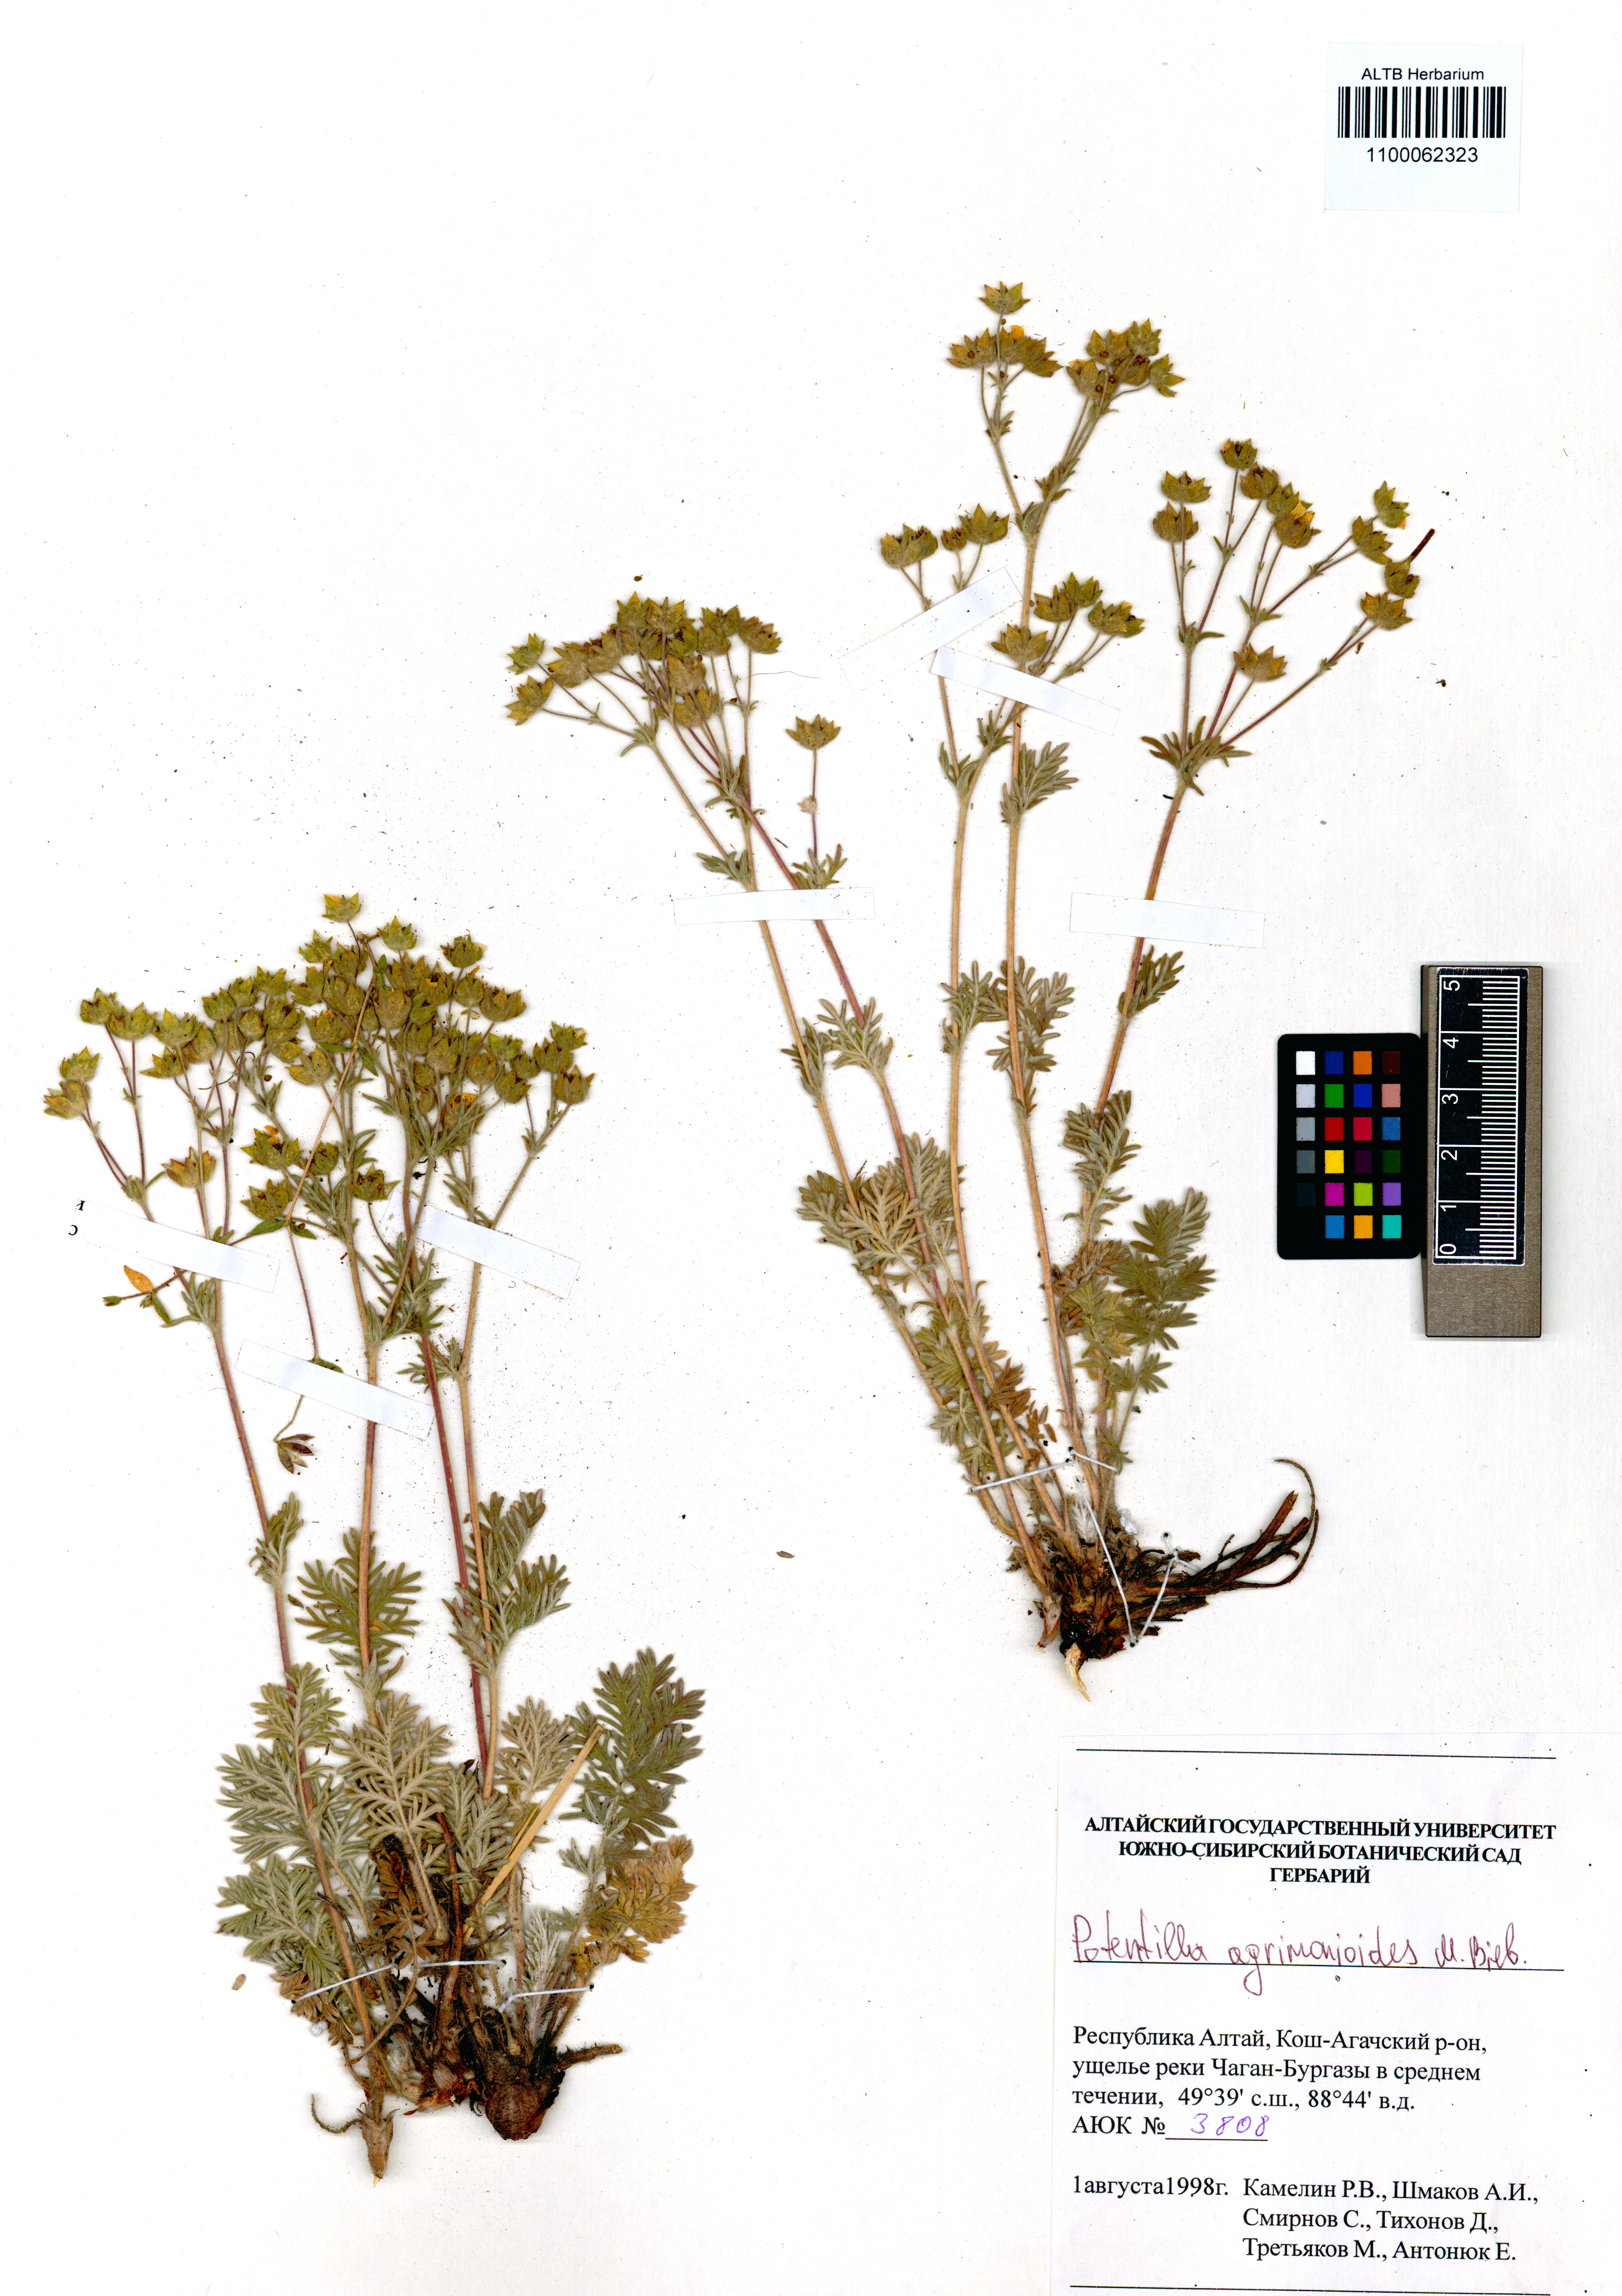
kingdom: Plantae
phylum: Tracheophyta
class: Magnoliopsida
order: Rosales
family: Rosaceae
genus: Potentilla
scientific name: Potentilla agrimonioides
